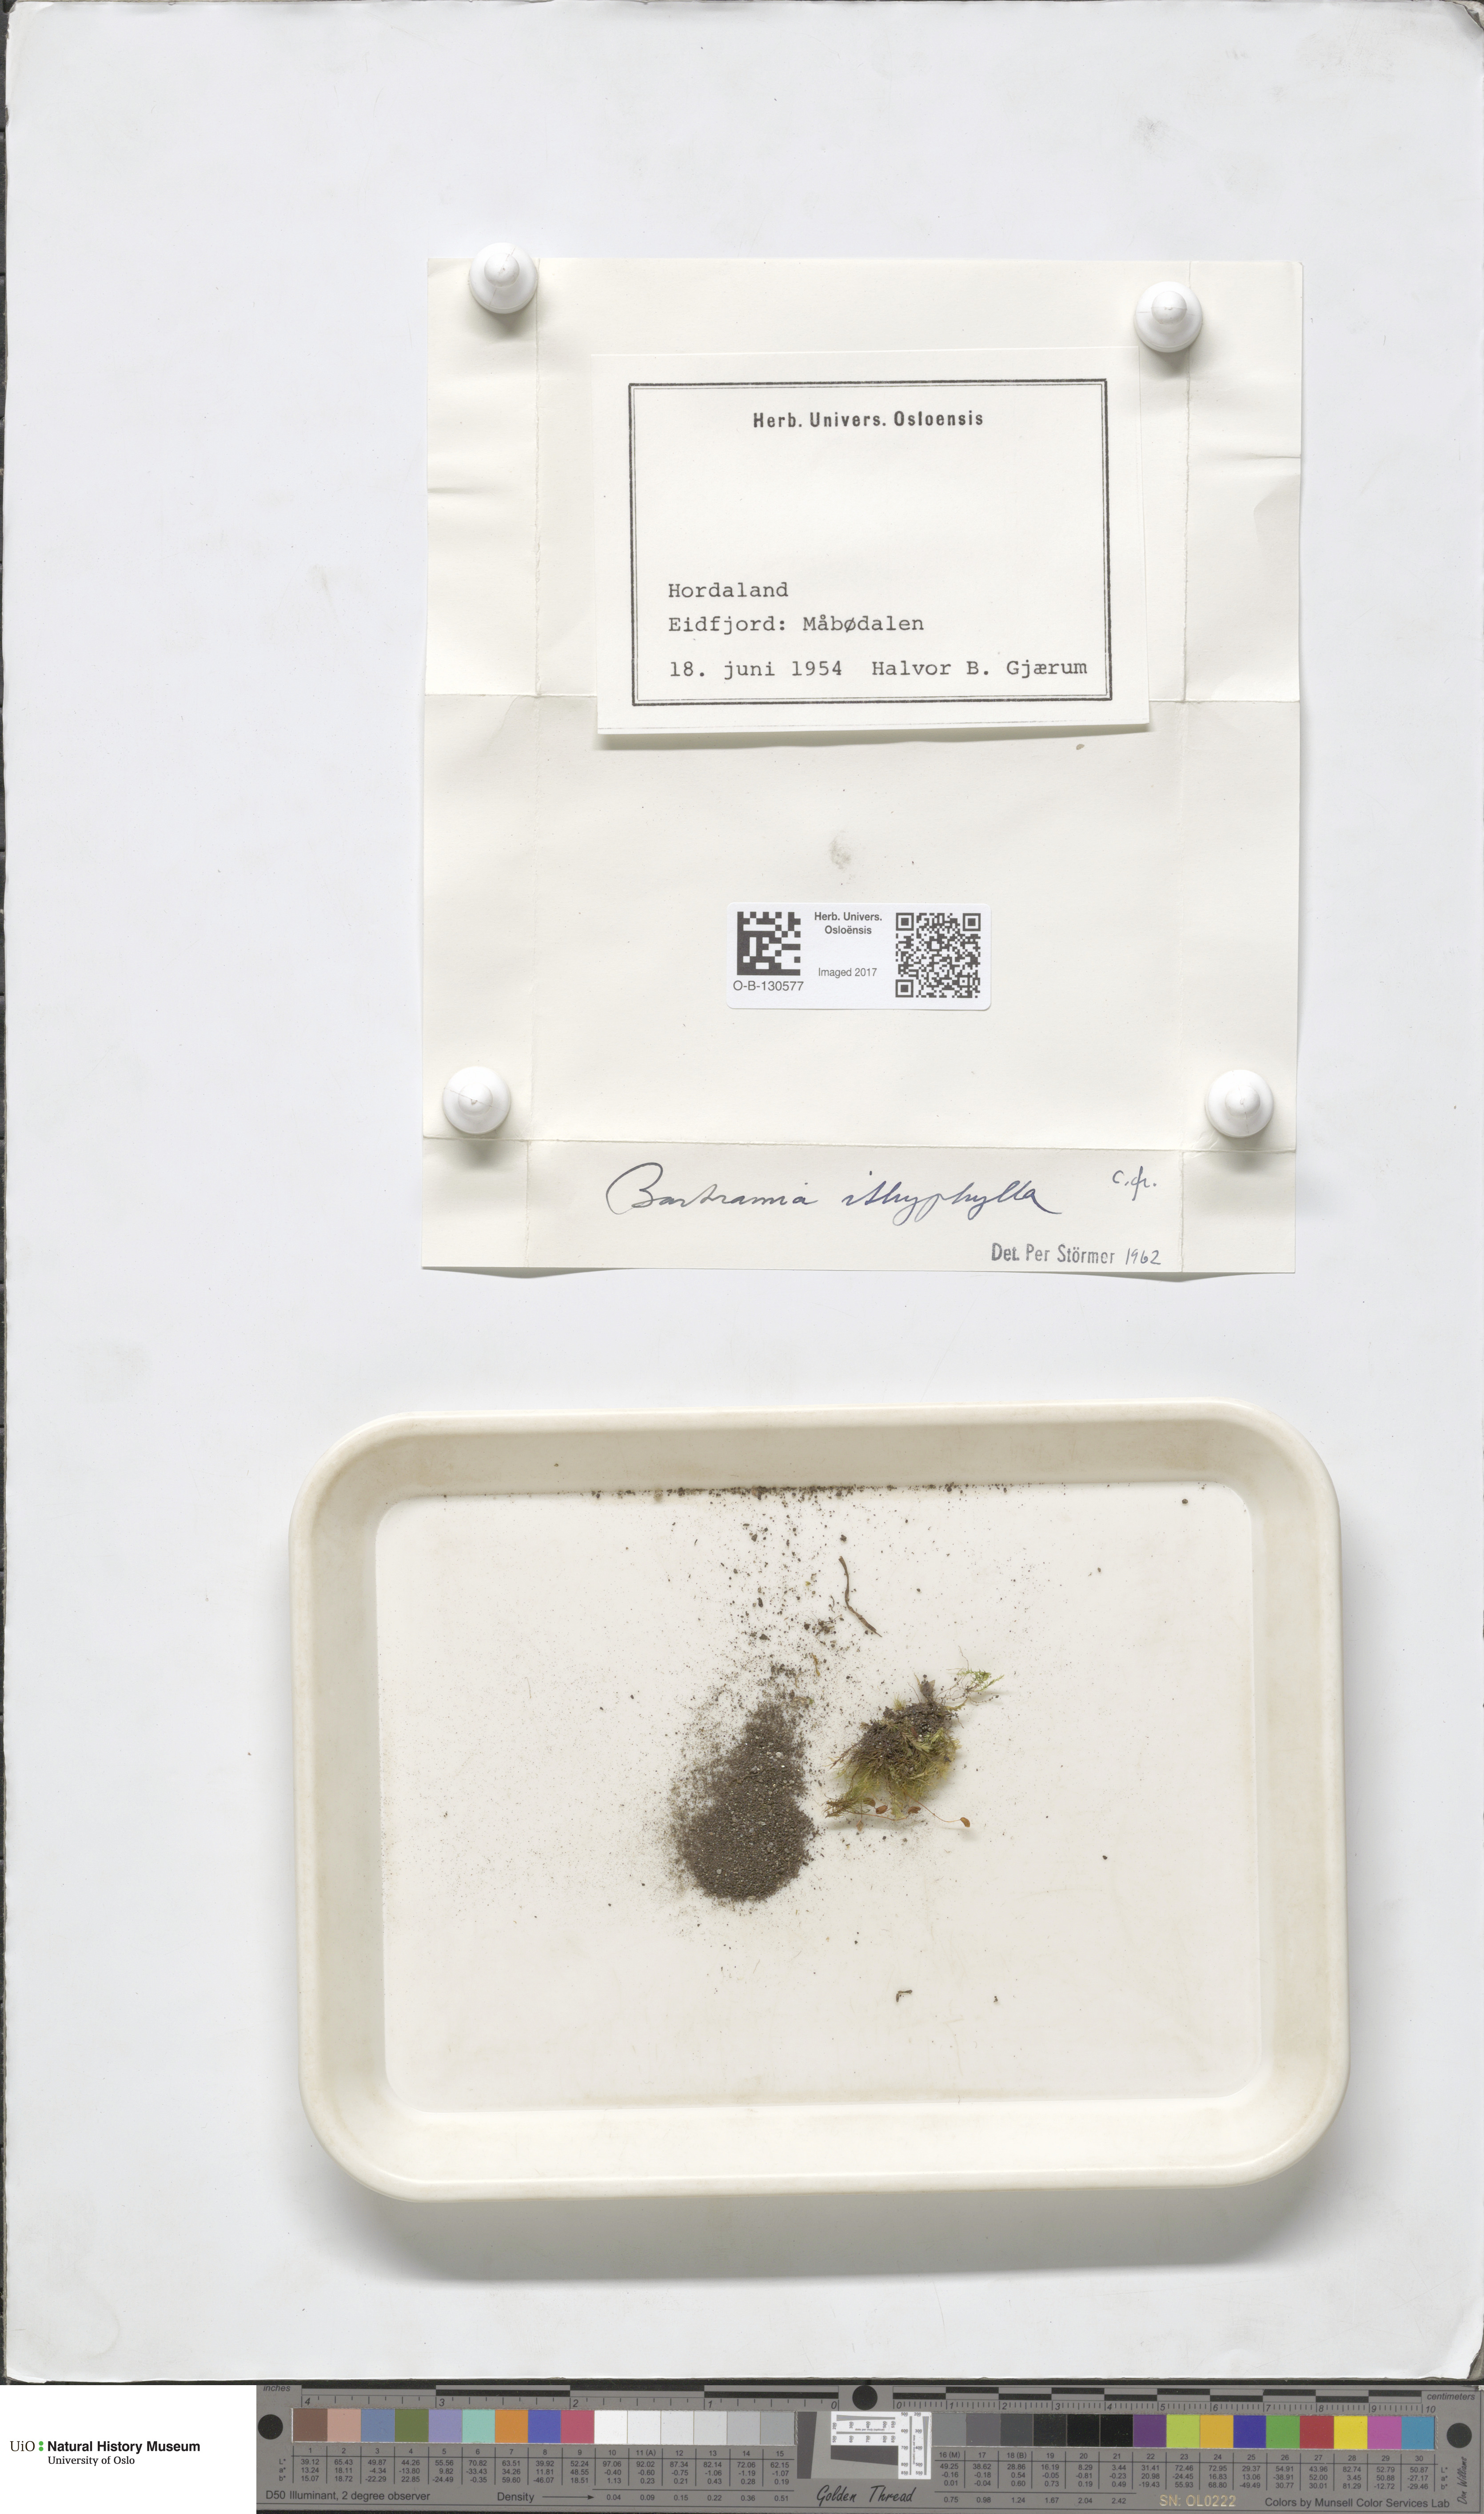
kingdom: Plantae
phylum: Bryophyta
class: Bryopsida
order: Bartramiales
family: Bartramiaceae
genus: Bartramia
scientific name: Bartramia ithyphylla
